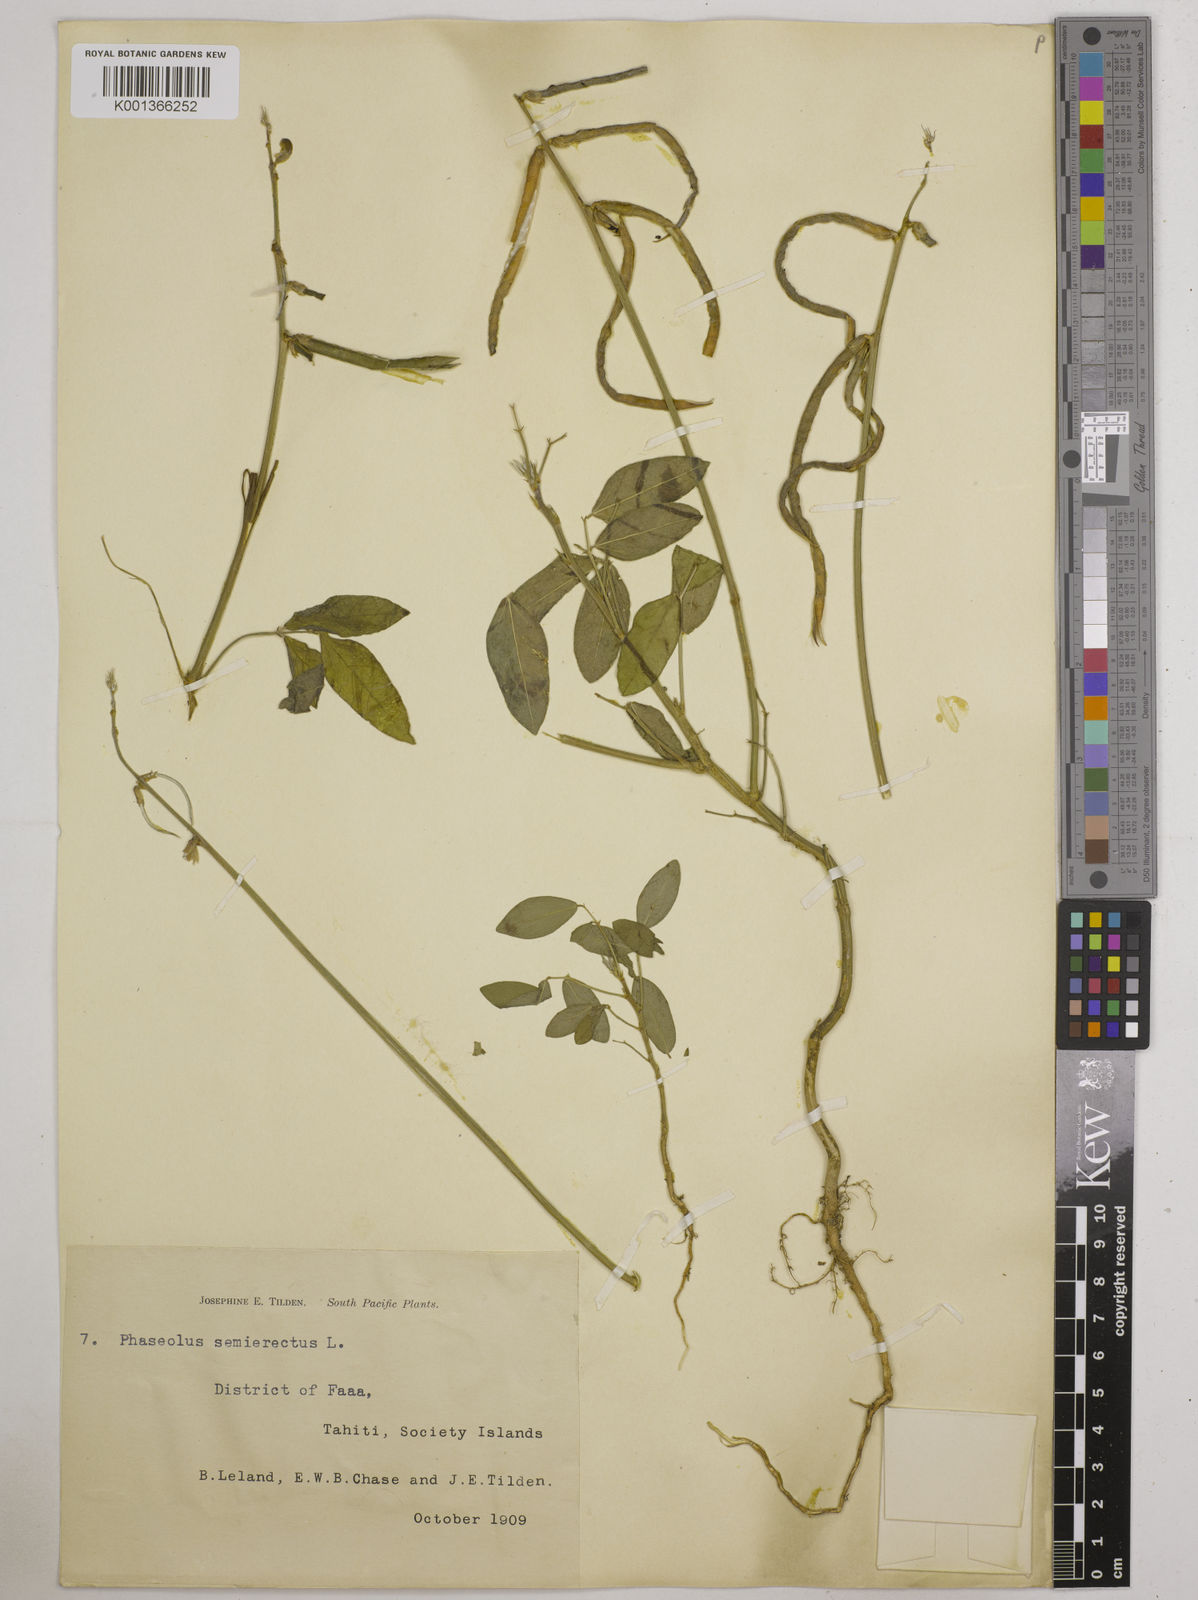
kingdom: Plantae
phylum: Tracheophyta
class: Magnoliopsida
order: Fabales
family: Fabaceae
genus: Macroptilium
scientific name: Macroptilium lathyroides
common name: Wild bushbean
